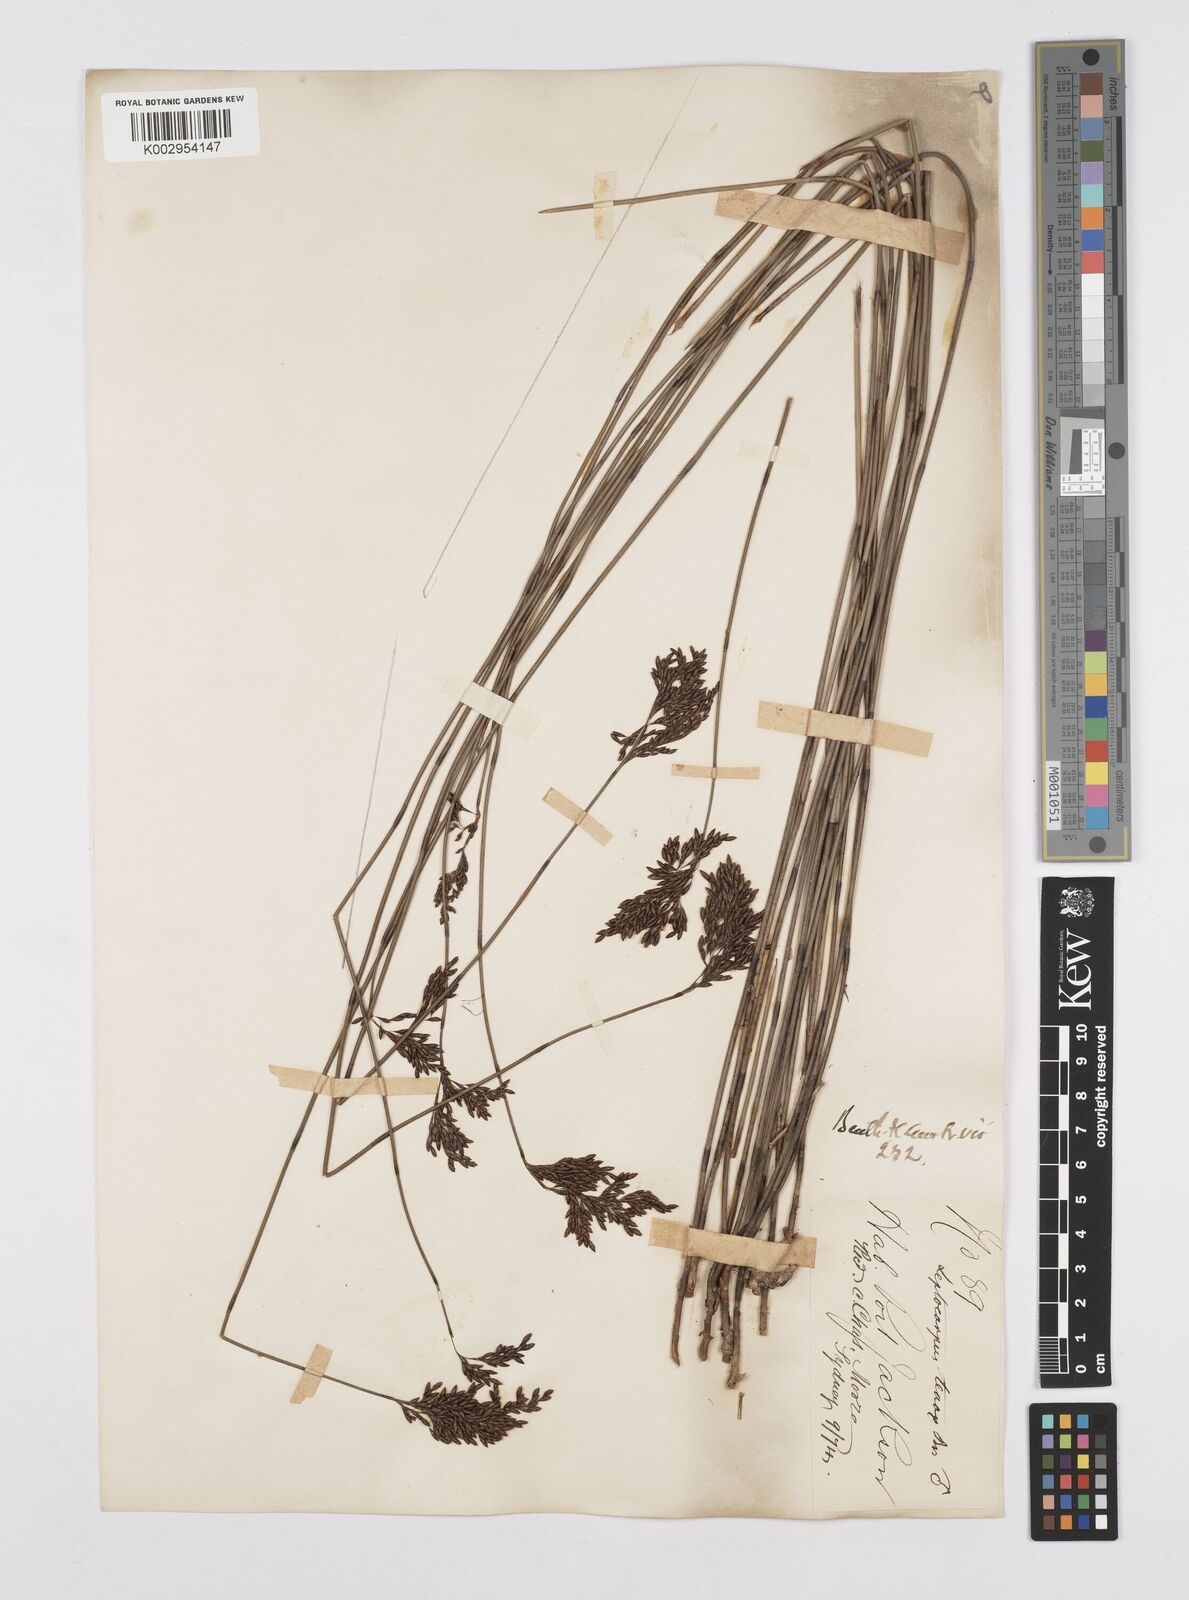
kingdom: Plantae
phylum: Tracheophyta
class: Liliopsida
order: Poales
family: Restionaceae
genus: Leptocarpus
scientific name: Leptocarpus tenax
